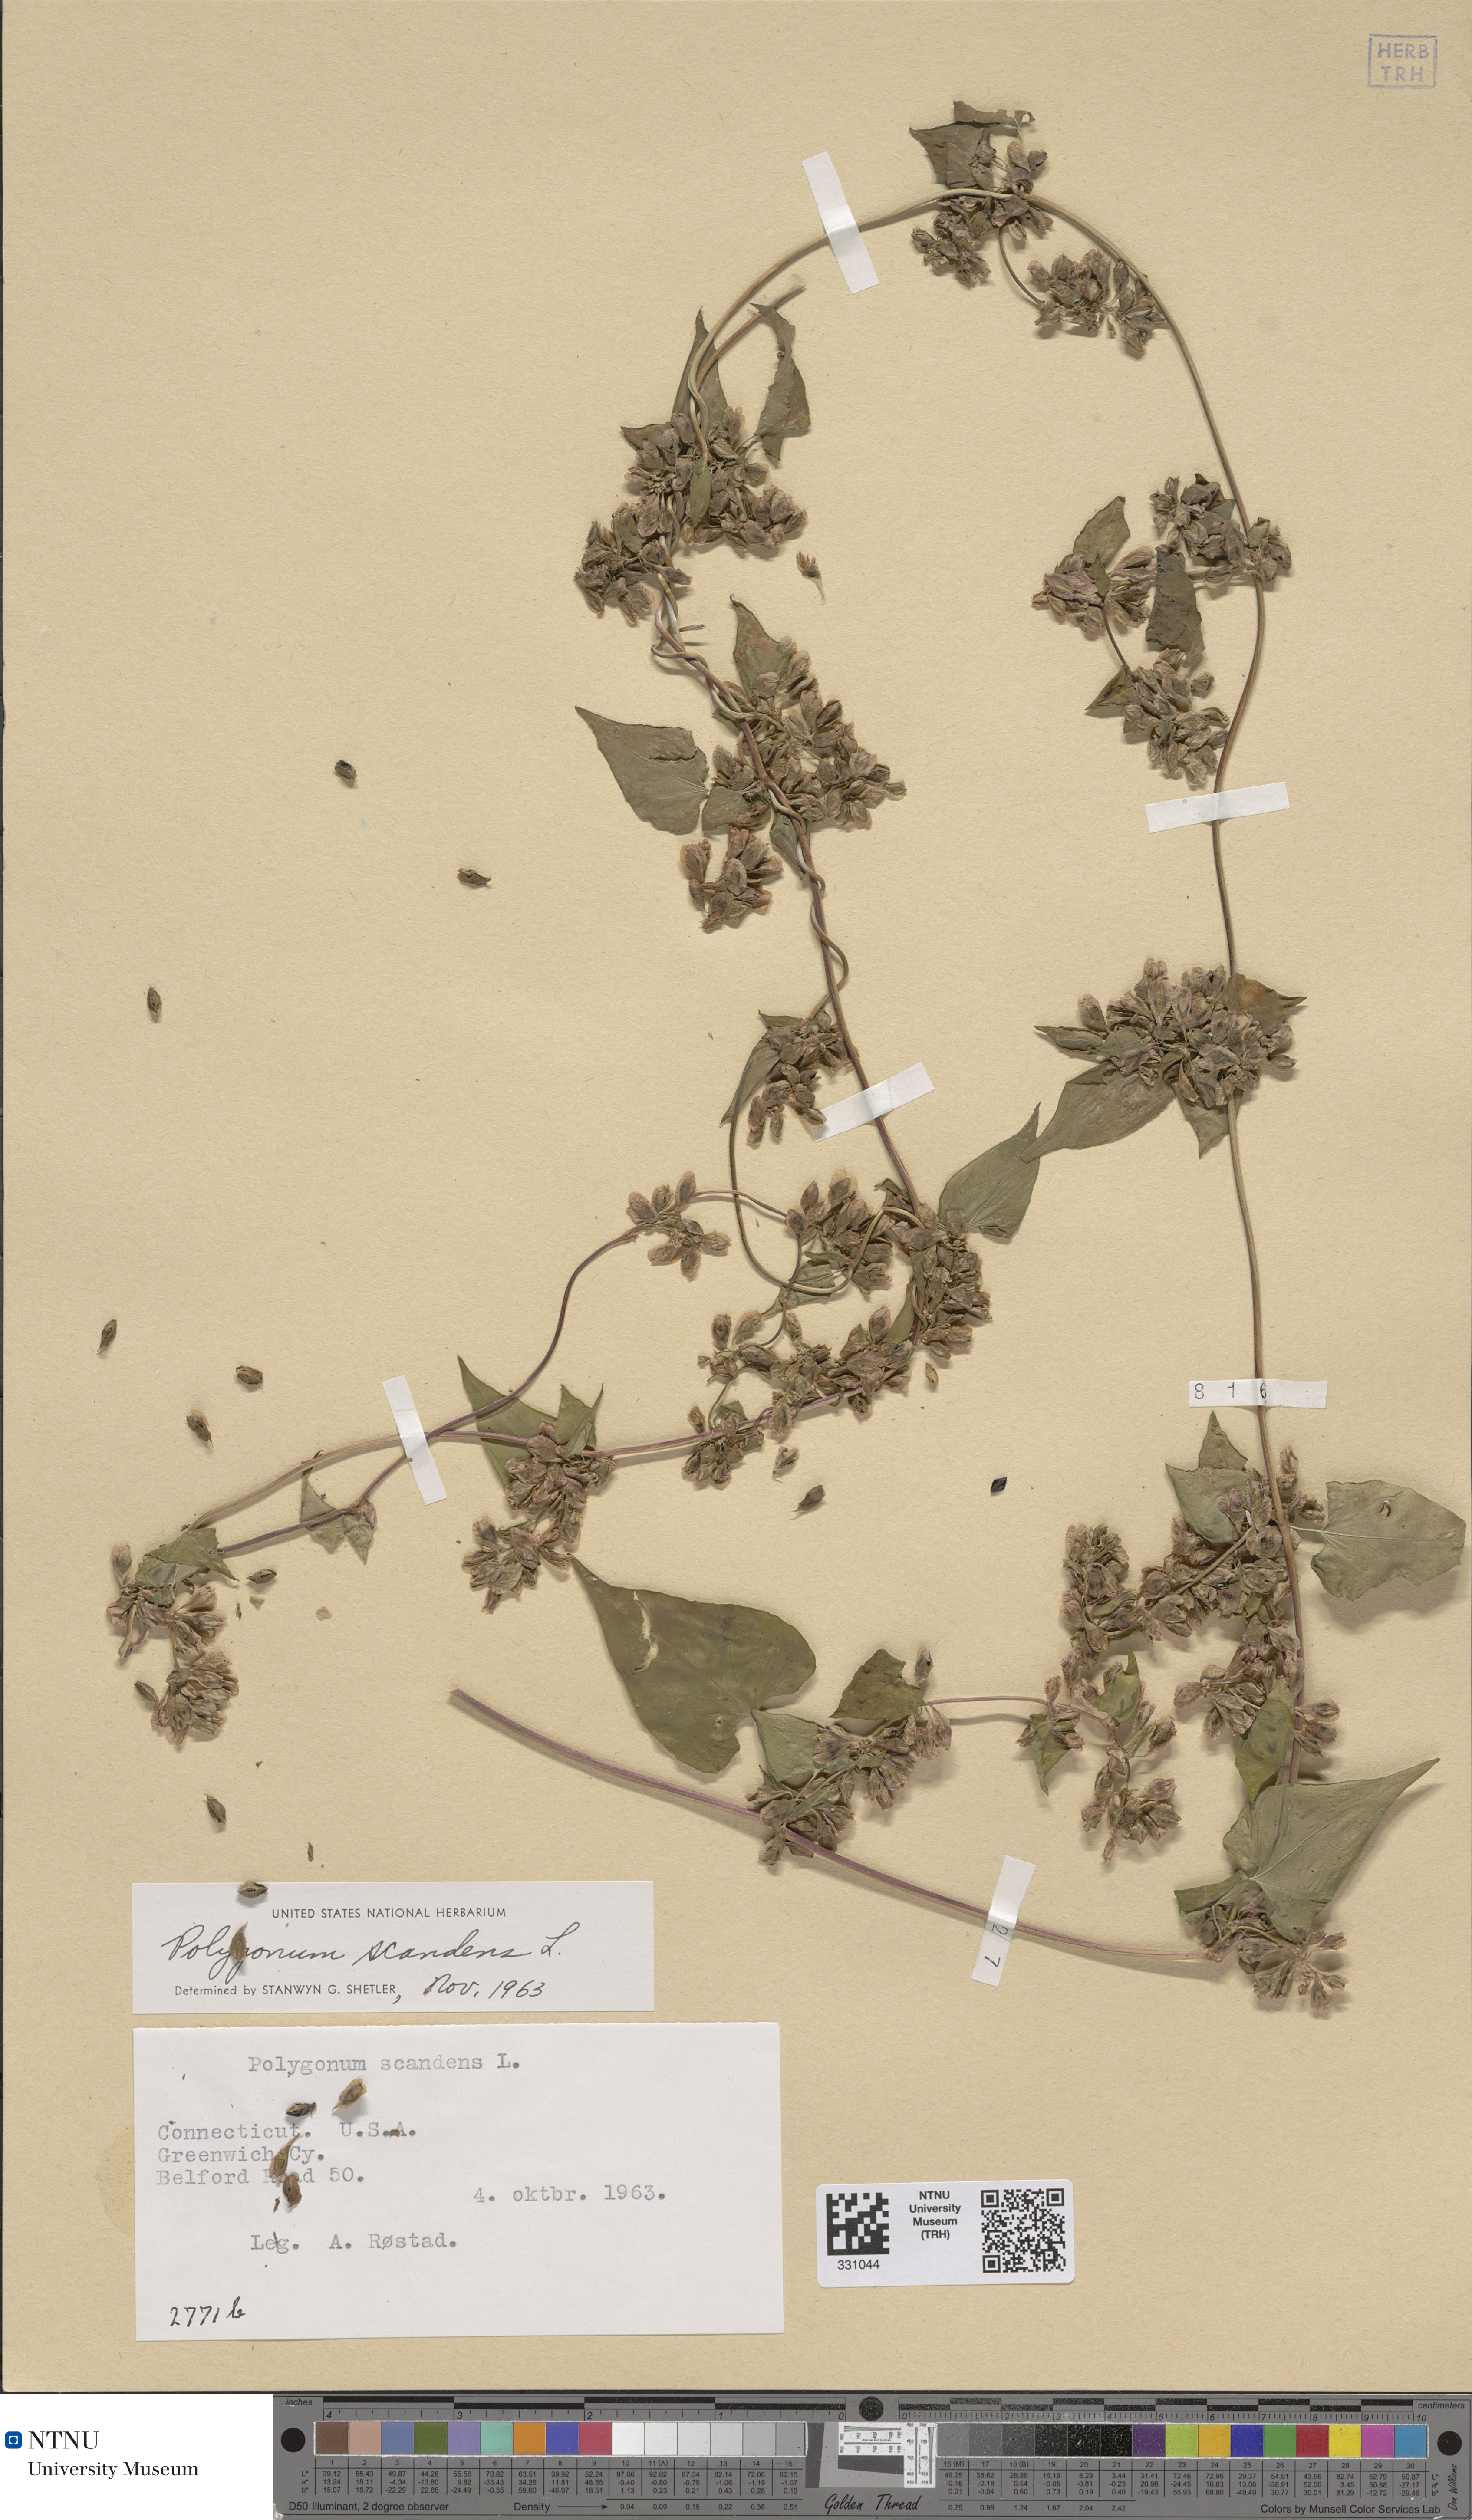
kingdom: Plantae
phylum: Tracheophyta
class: Magnoliopsida
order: Caryophyllales
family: Polygonaceae
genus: Fallopia
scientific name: Fallopia scandens
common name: Climbing false buckwheat
